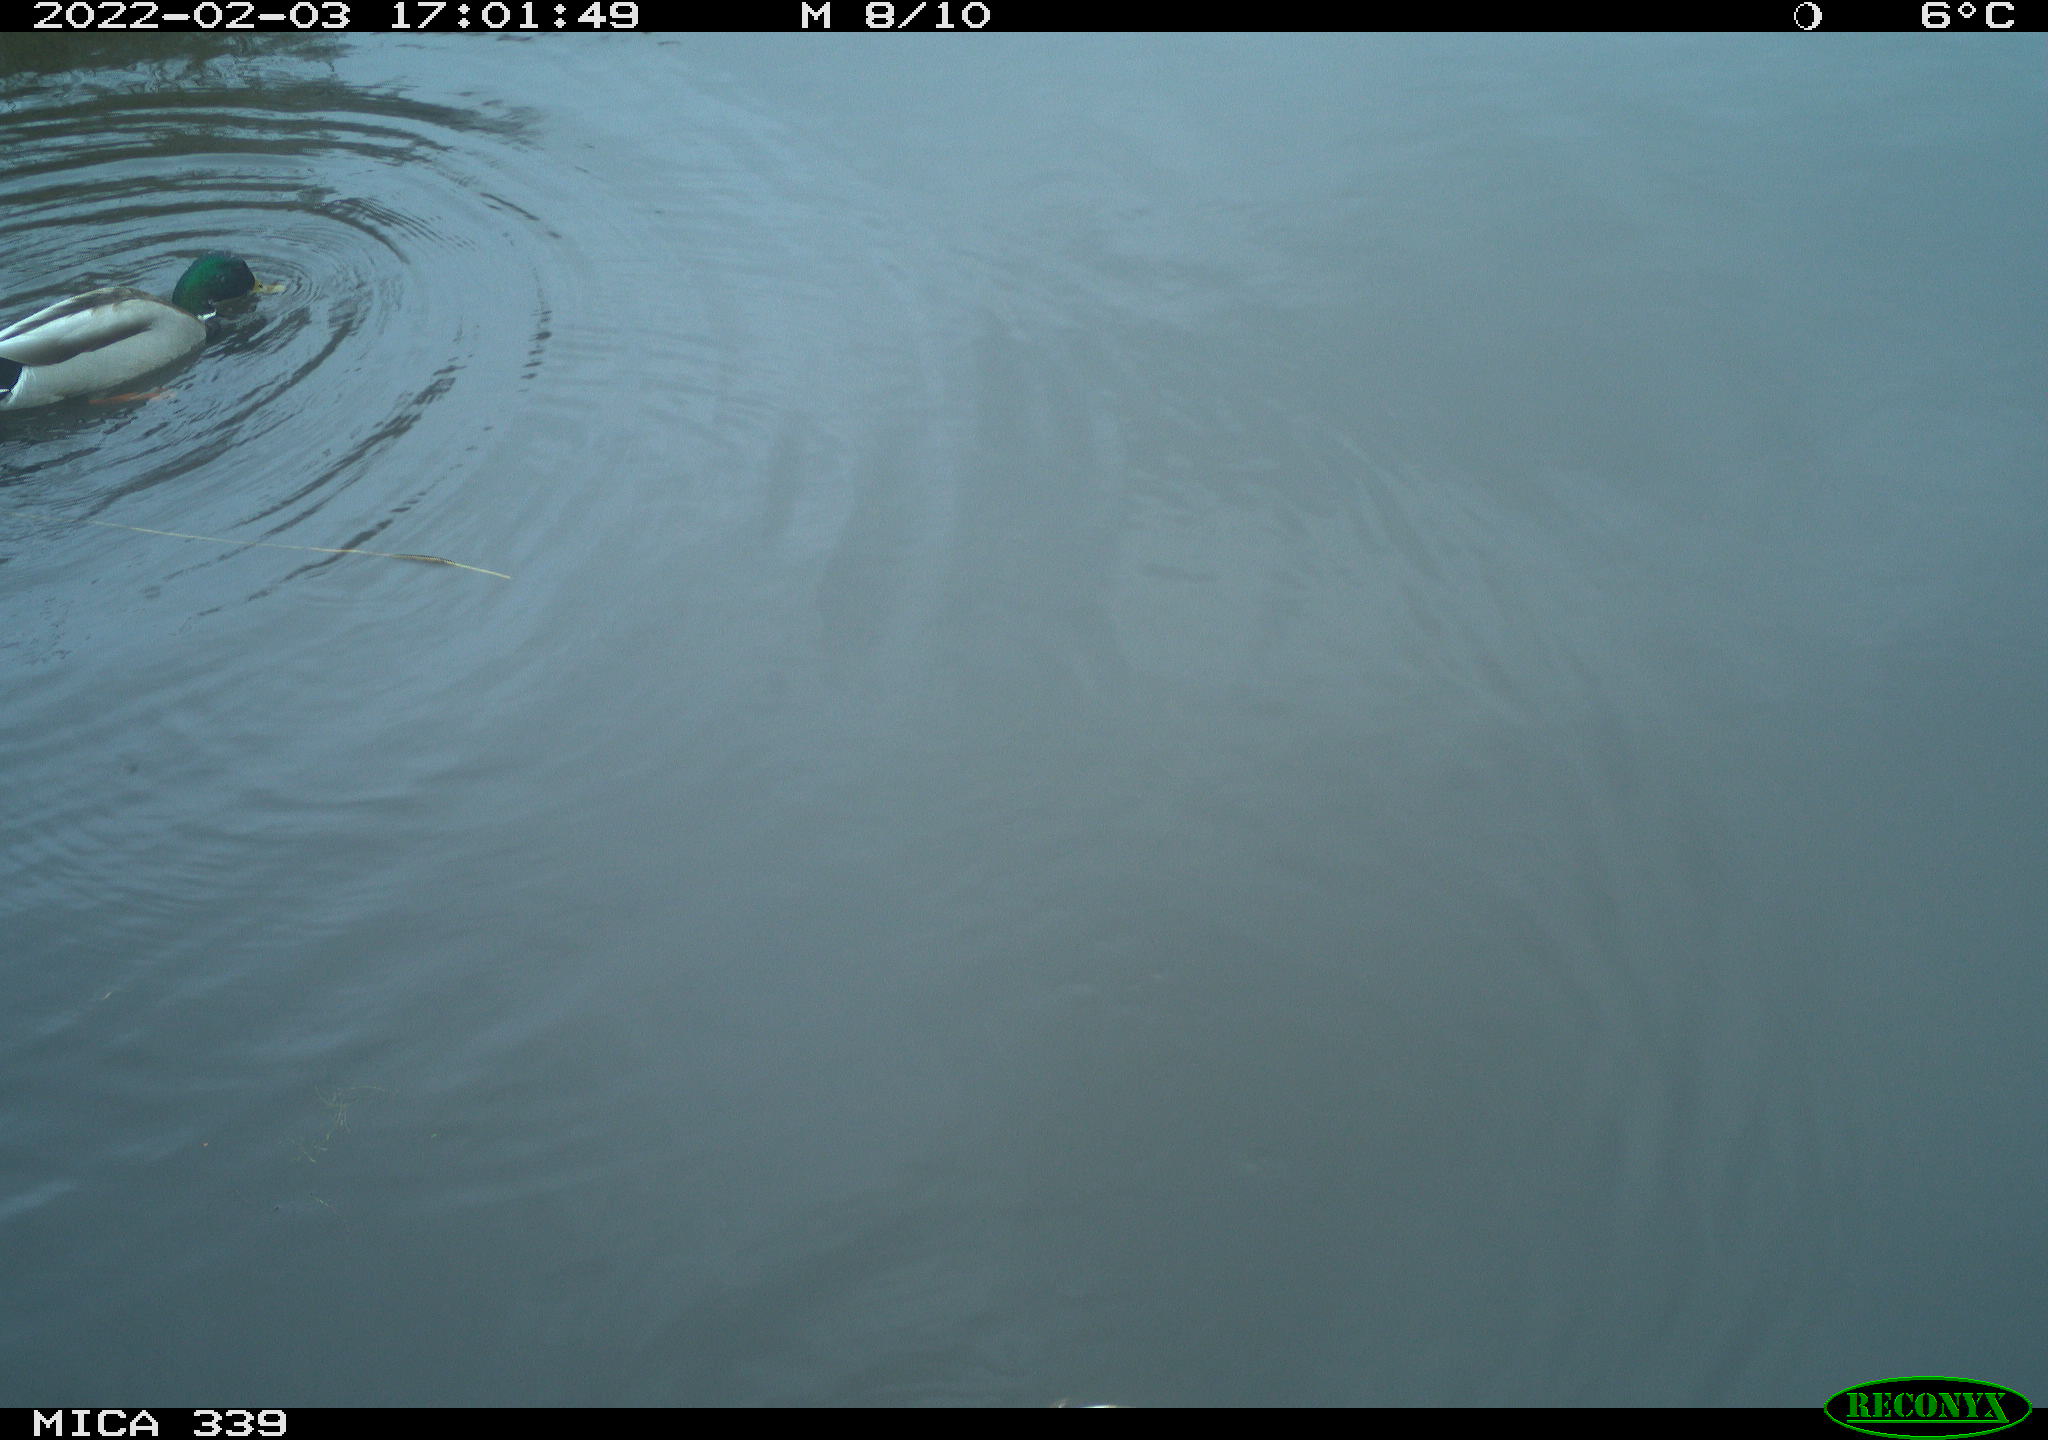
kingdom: Animalia
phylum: Chordata
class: Aves
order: Anseriformes
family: Anatidae
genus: Anas
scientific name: Anas platyrhynchos
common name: Mallard
